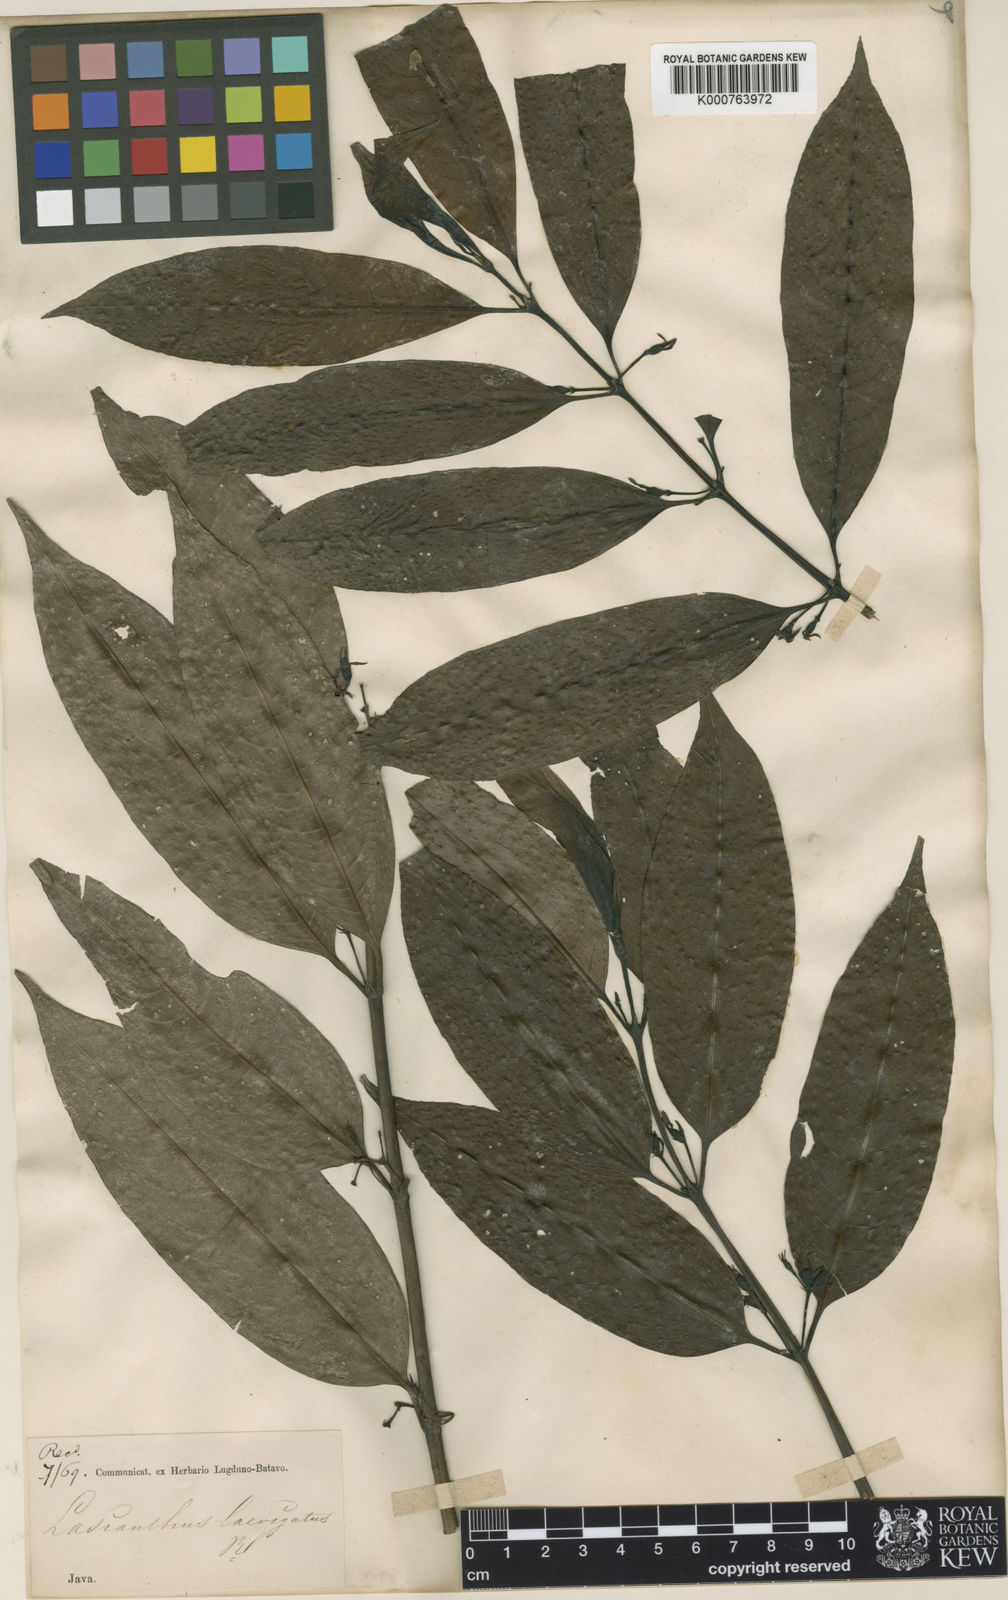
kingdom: Plantae
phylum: Tracheophyta
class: Magnoliopsida
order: Gentianales
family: Rubiaceae
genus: Lasianthus
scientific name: Lasianthus laevigatus
